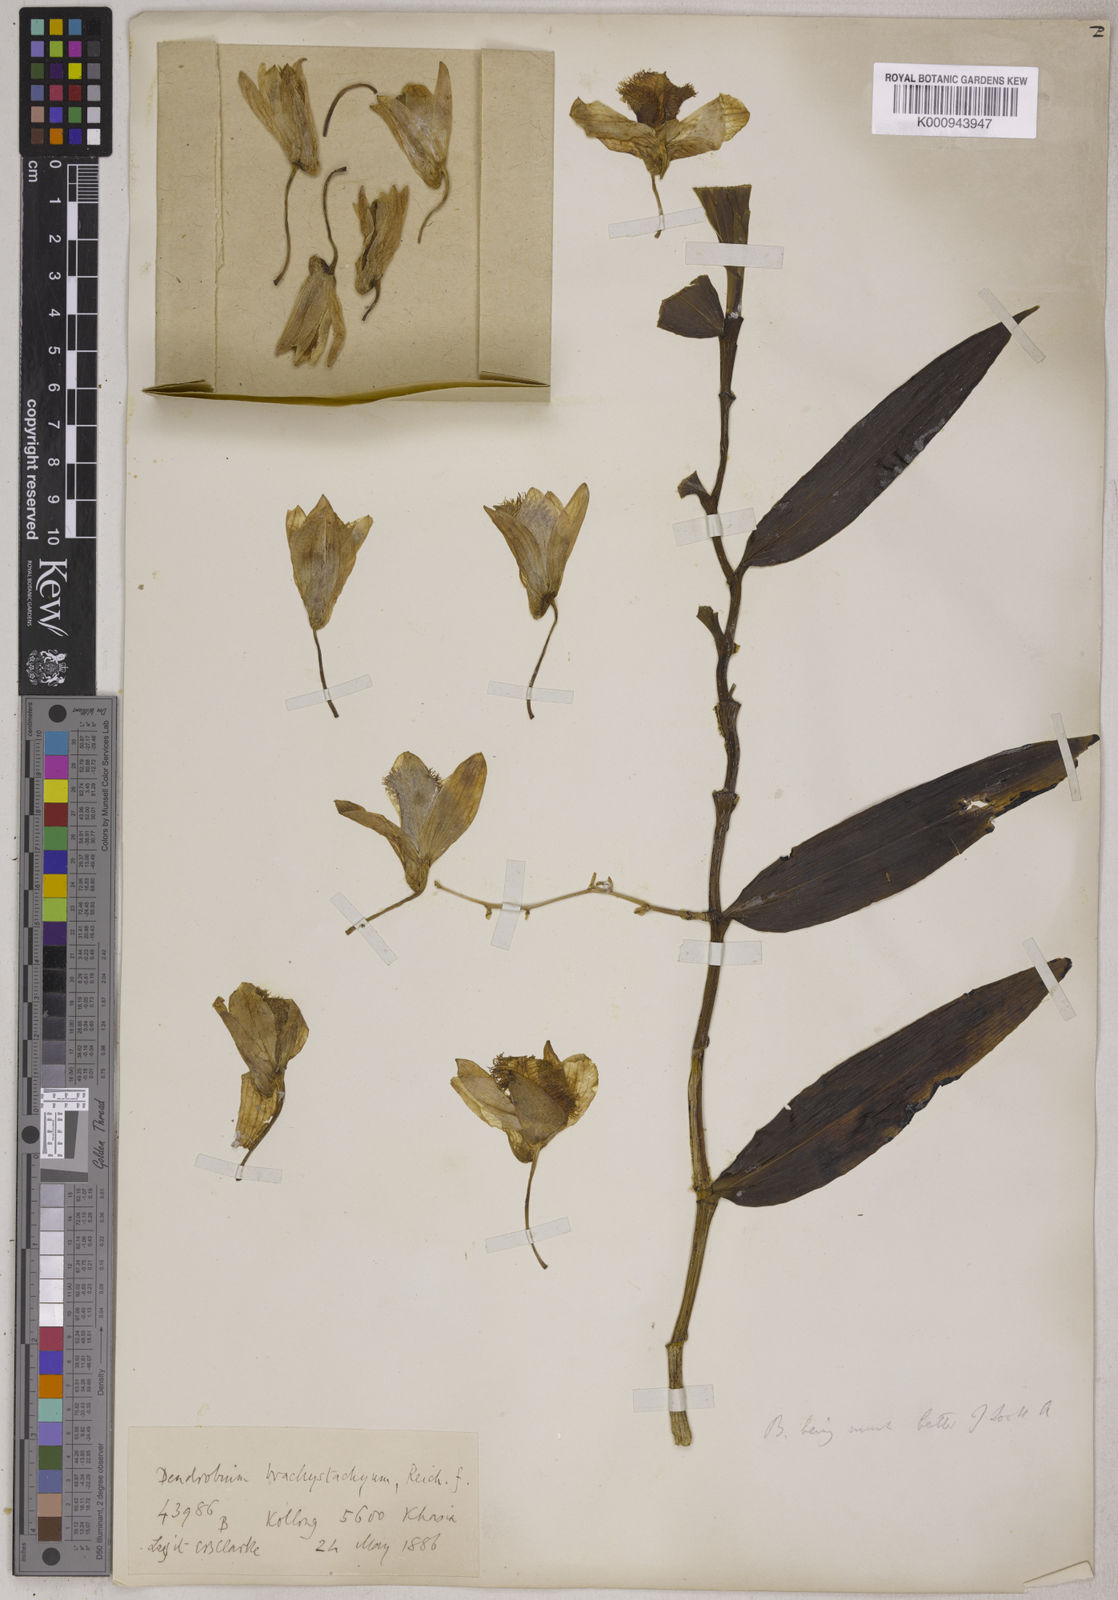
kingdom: Plantae
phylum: Tracheophyta
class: Liliopsida
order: Asparagales
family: Orchidaceae
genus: Dendrobium
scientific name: Dendrobium hookerianum
